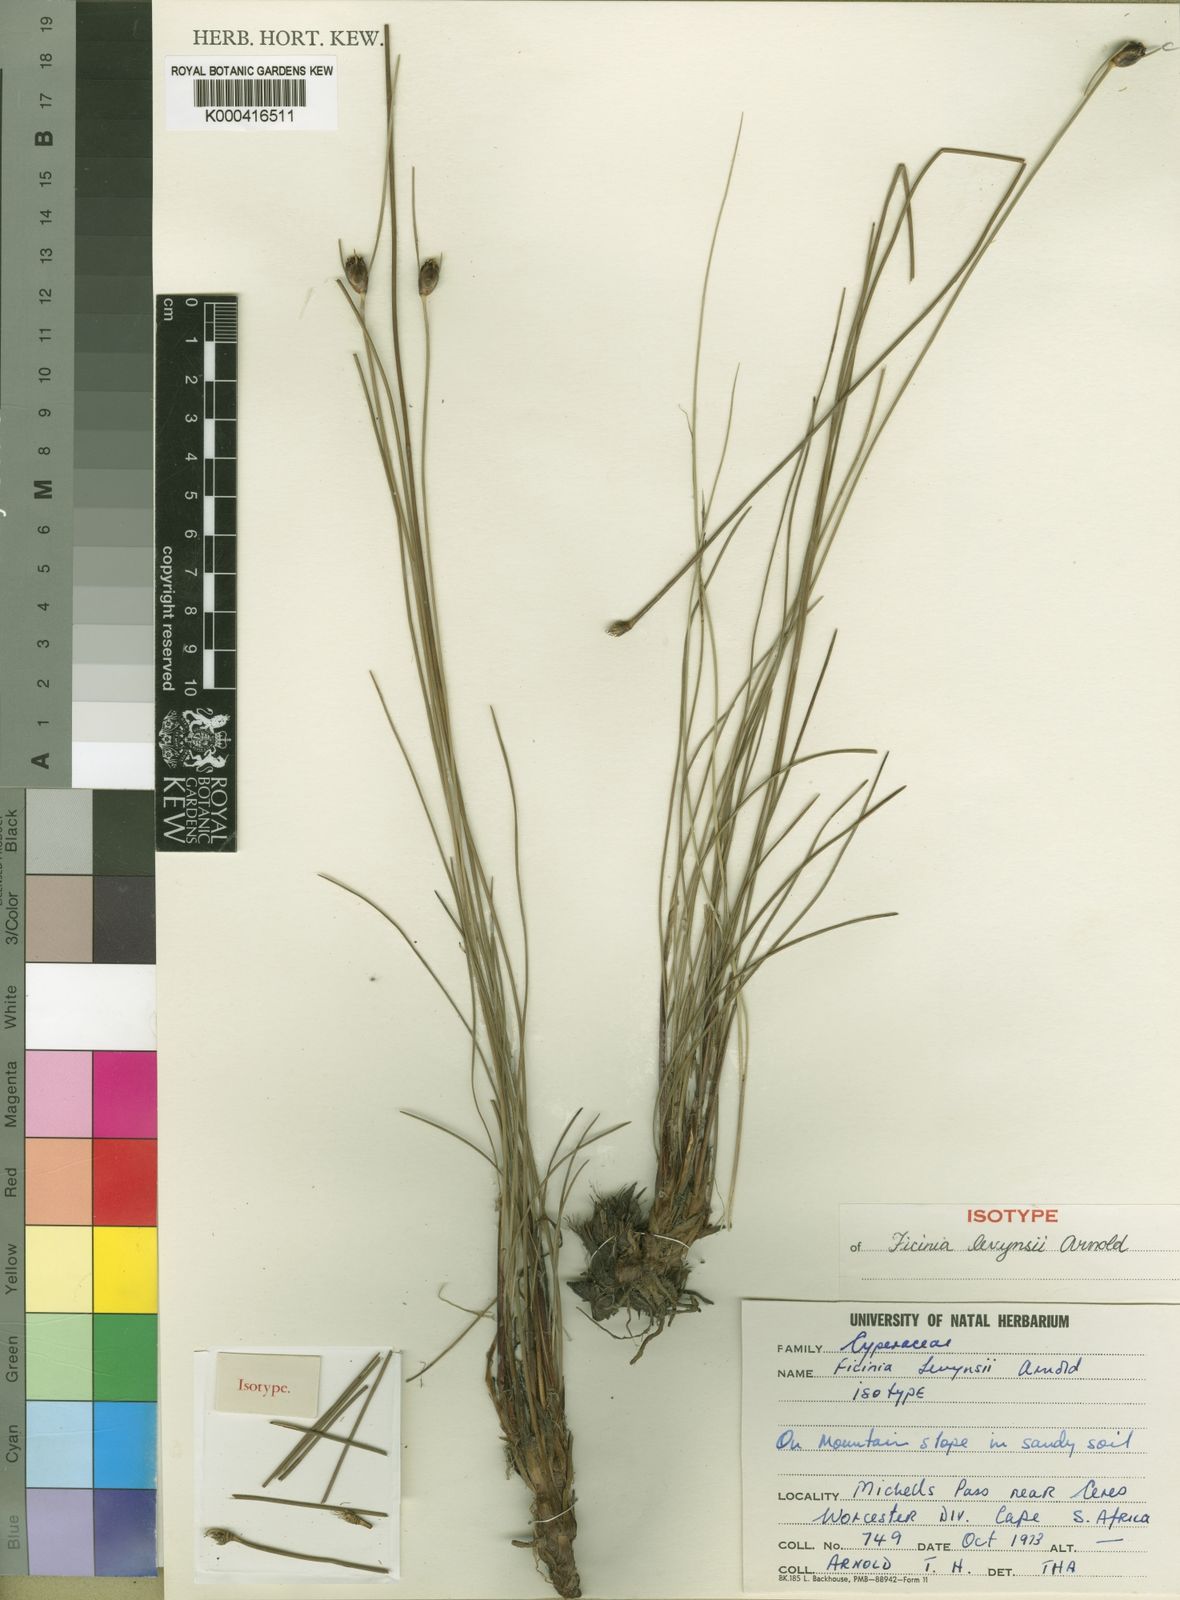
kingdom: Plantae
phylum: Tracheophyta
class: Liliopsida
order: Poales
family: Cyperaceae
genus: Ficinia
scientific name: Ficinia levynsiae
